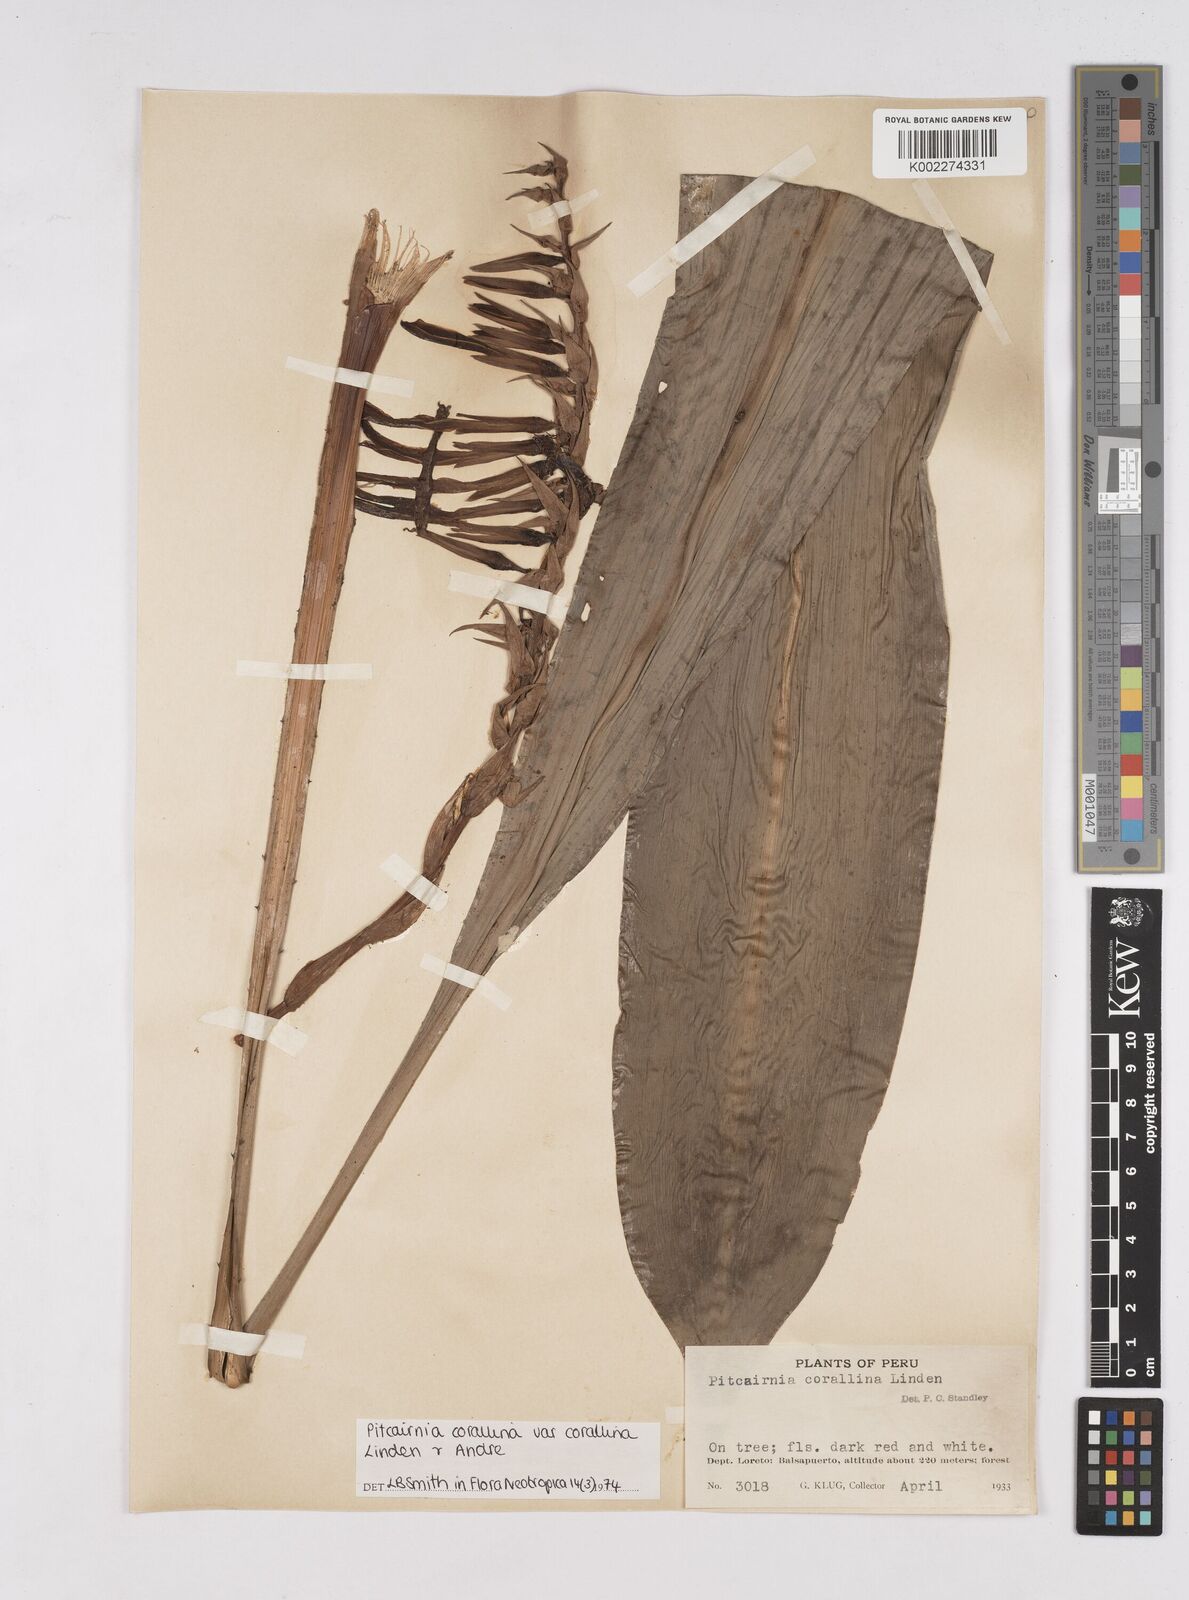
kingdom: Plantae
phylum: Tracheophyta
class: Liliopsida
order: Poales
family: Bromeliaceae
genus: Pitcairnia
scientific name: Pitcairnia corallina
